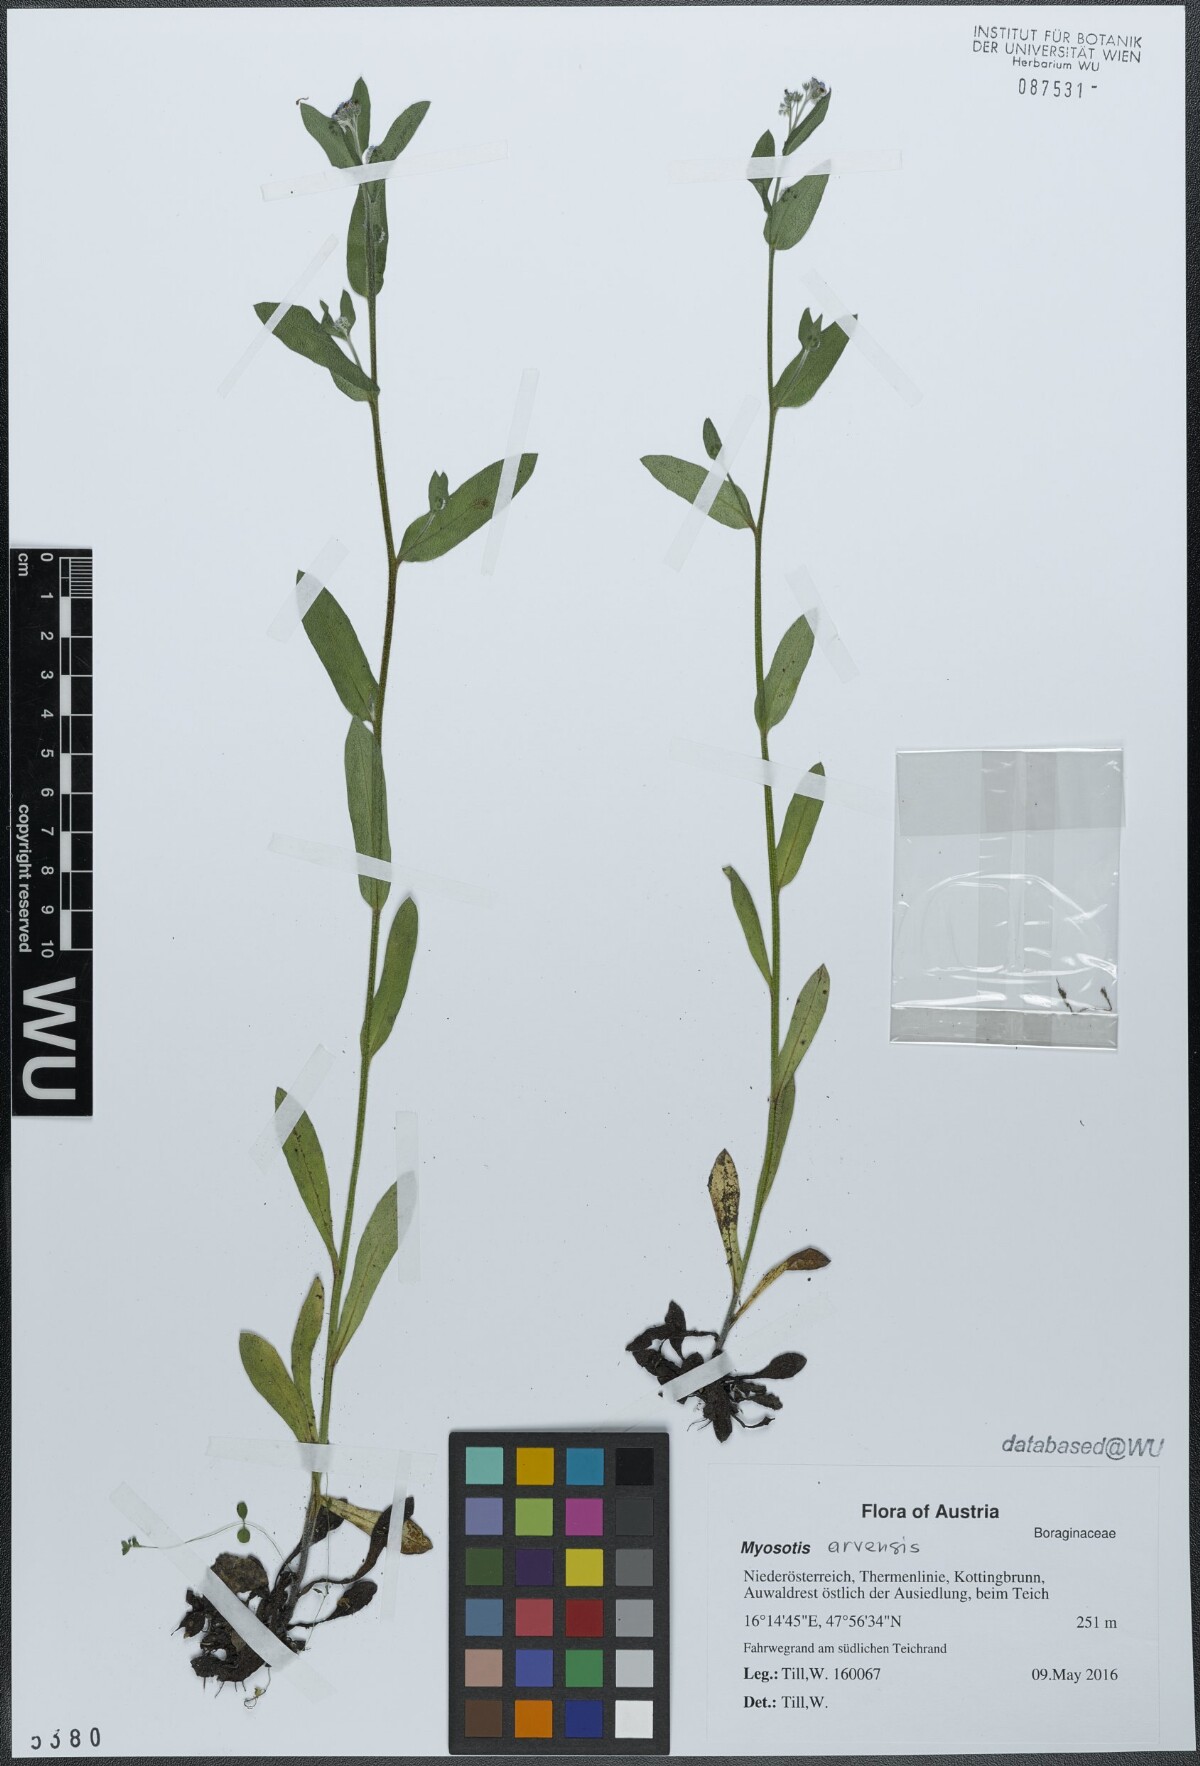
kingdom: Plantae
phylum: Tracheophyta
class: Magnoliopsida
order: Boraginales
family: Boraginaceae
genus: Myosotis
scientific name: Myosotis arvensis
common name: Field forget-me-not
